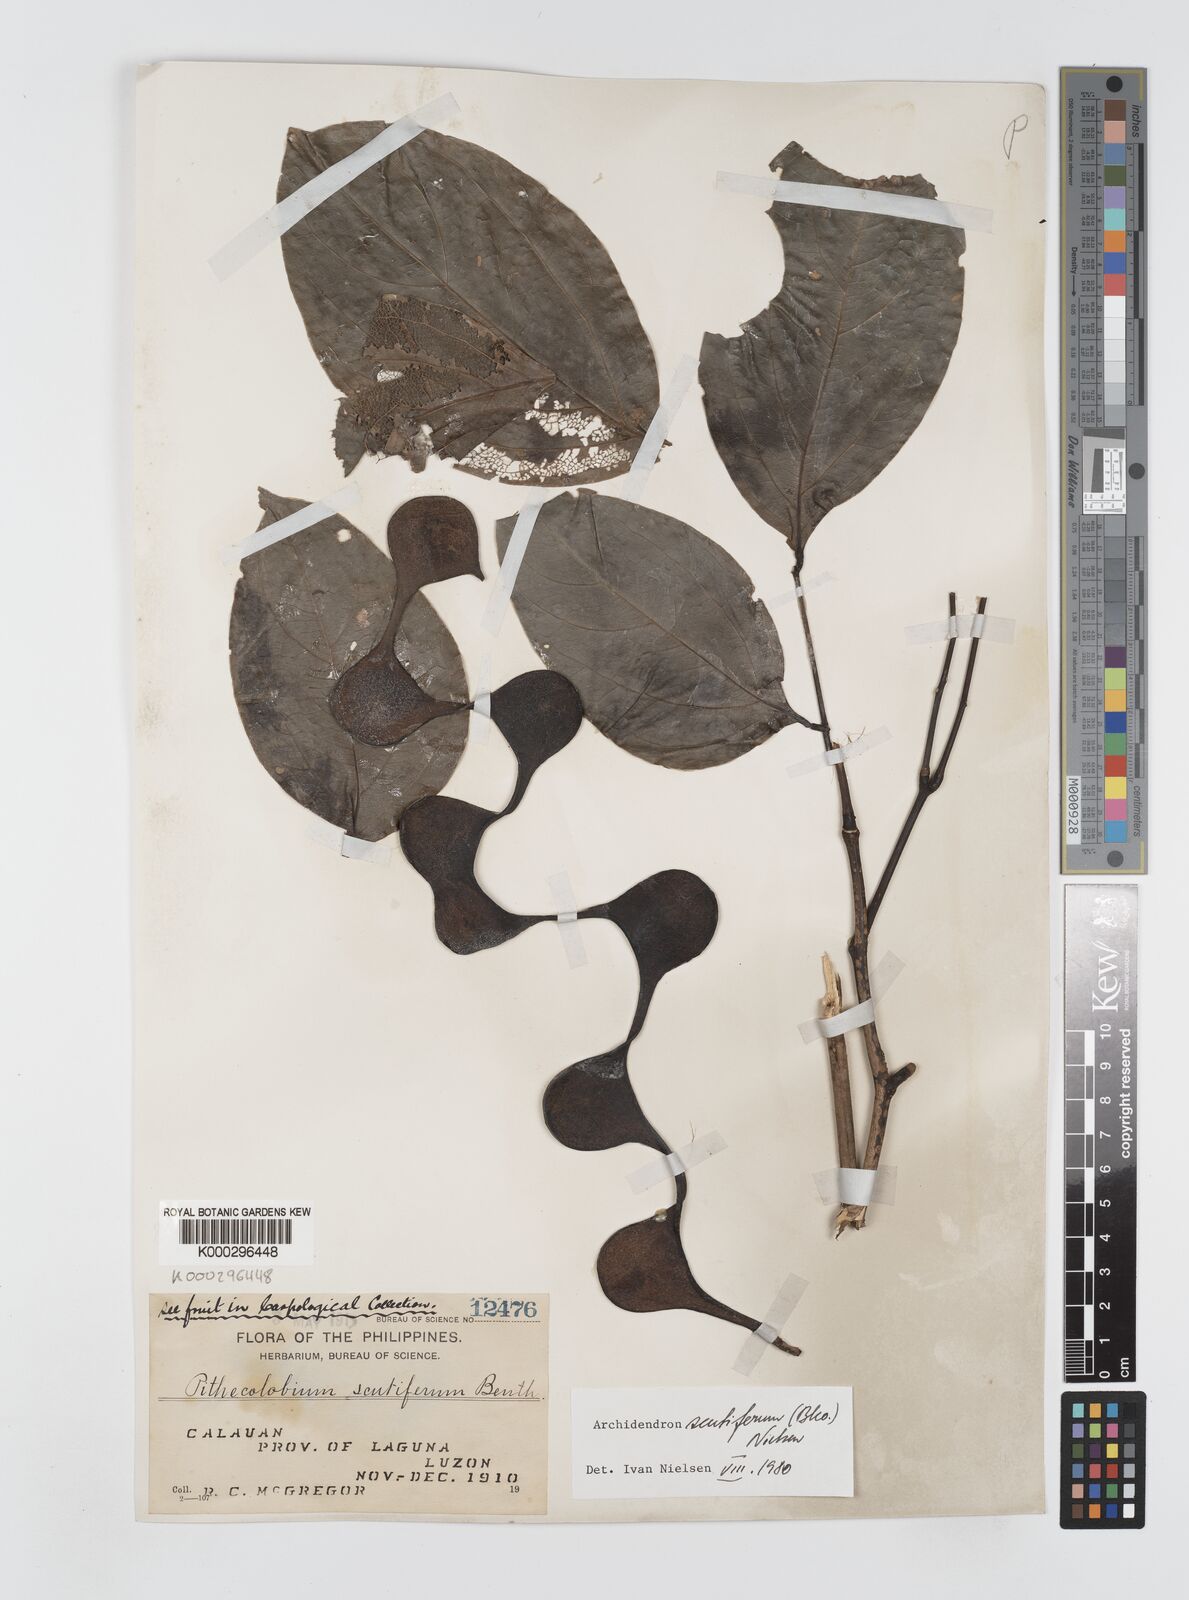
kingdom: Plantae
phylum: Tracheophyta
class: Magnoliopsida
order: Fabales
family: Fabaceae
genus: Archidendron
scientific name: Archidendron scutiferum
